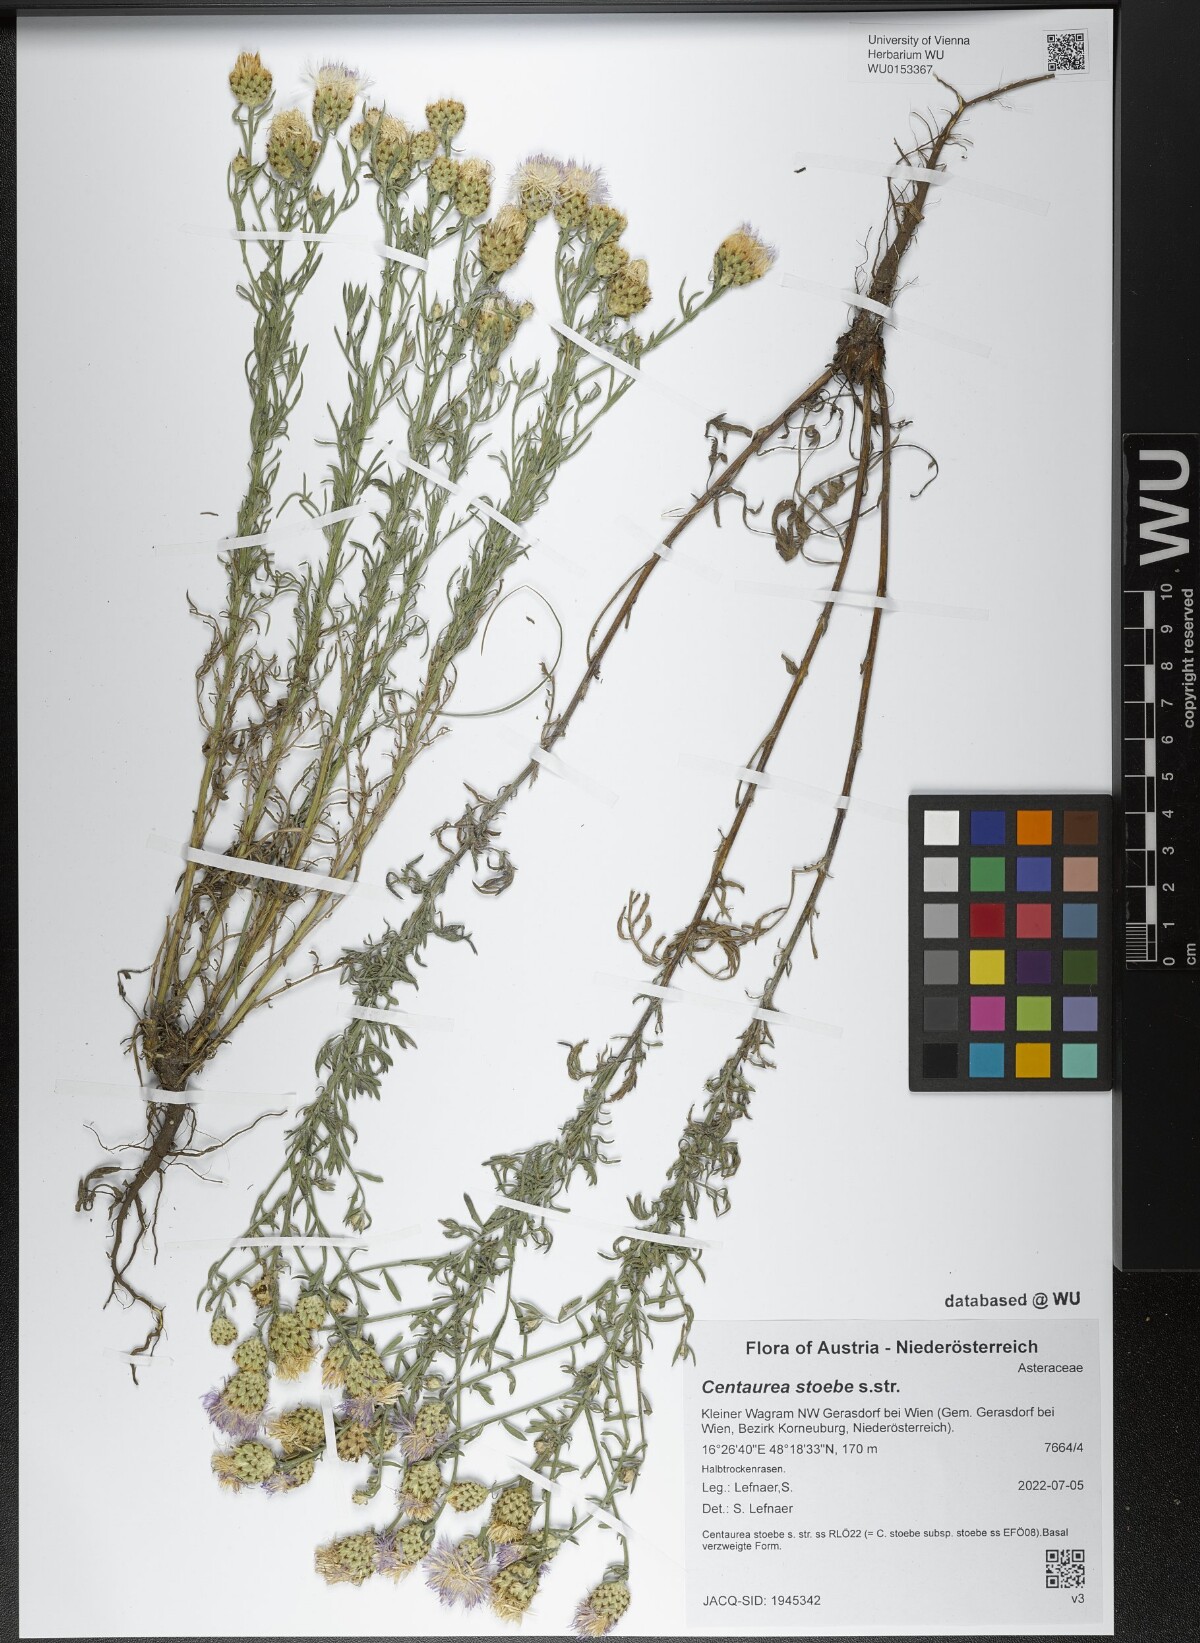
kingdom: Plantae
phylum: Tracheophyta
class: Magnoliopsida
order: Asterales
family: Asteraceae
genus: Centaurea
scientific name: Centaurea stoebe
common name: Spotted knapweed
